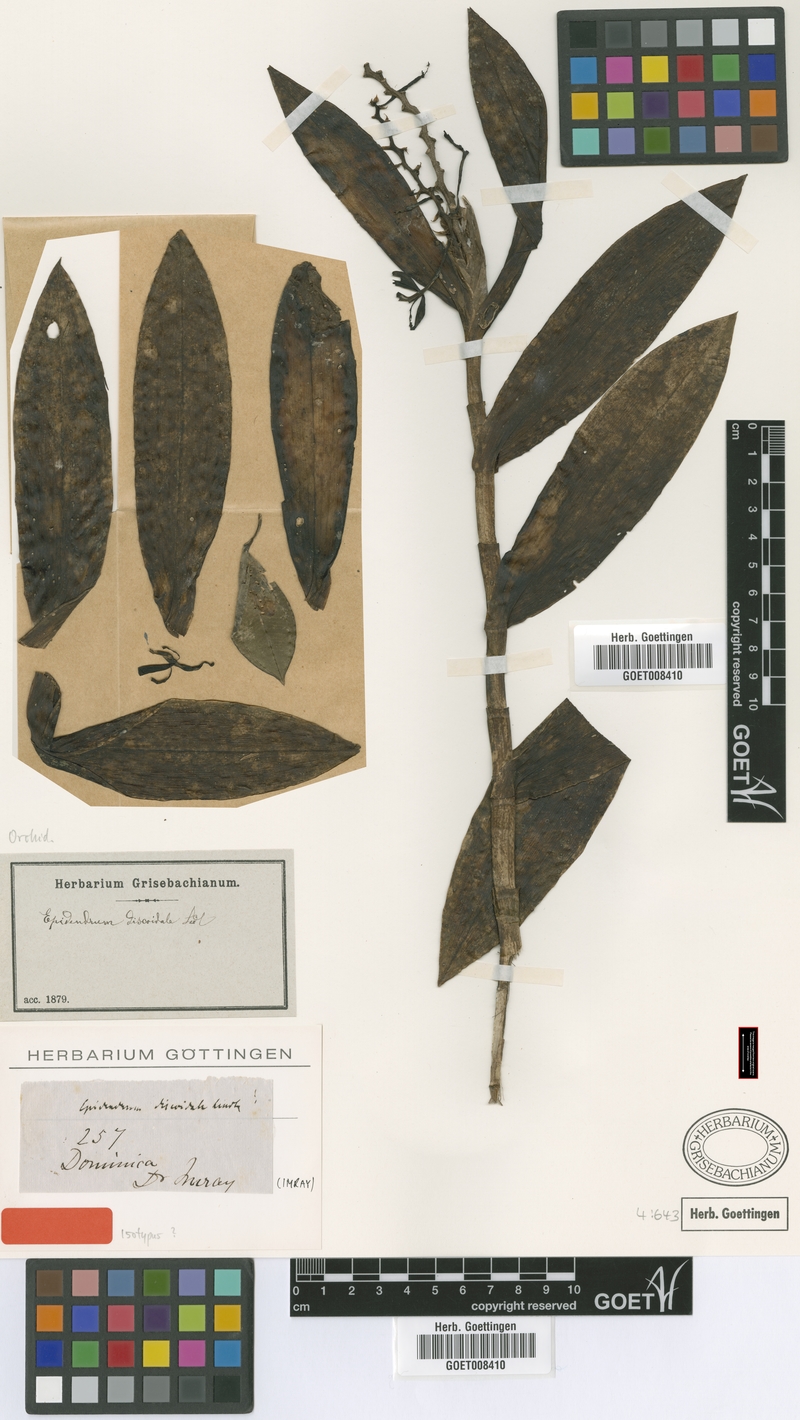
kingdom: Plantae
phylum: Tracheophyta
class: Liliopsida
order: Asparagales
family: Orchidaceae
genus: Epidendrum
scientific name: Epidendrum discoidale
